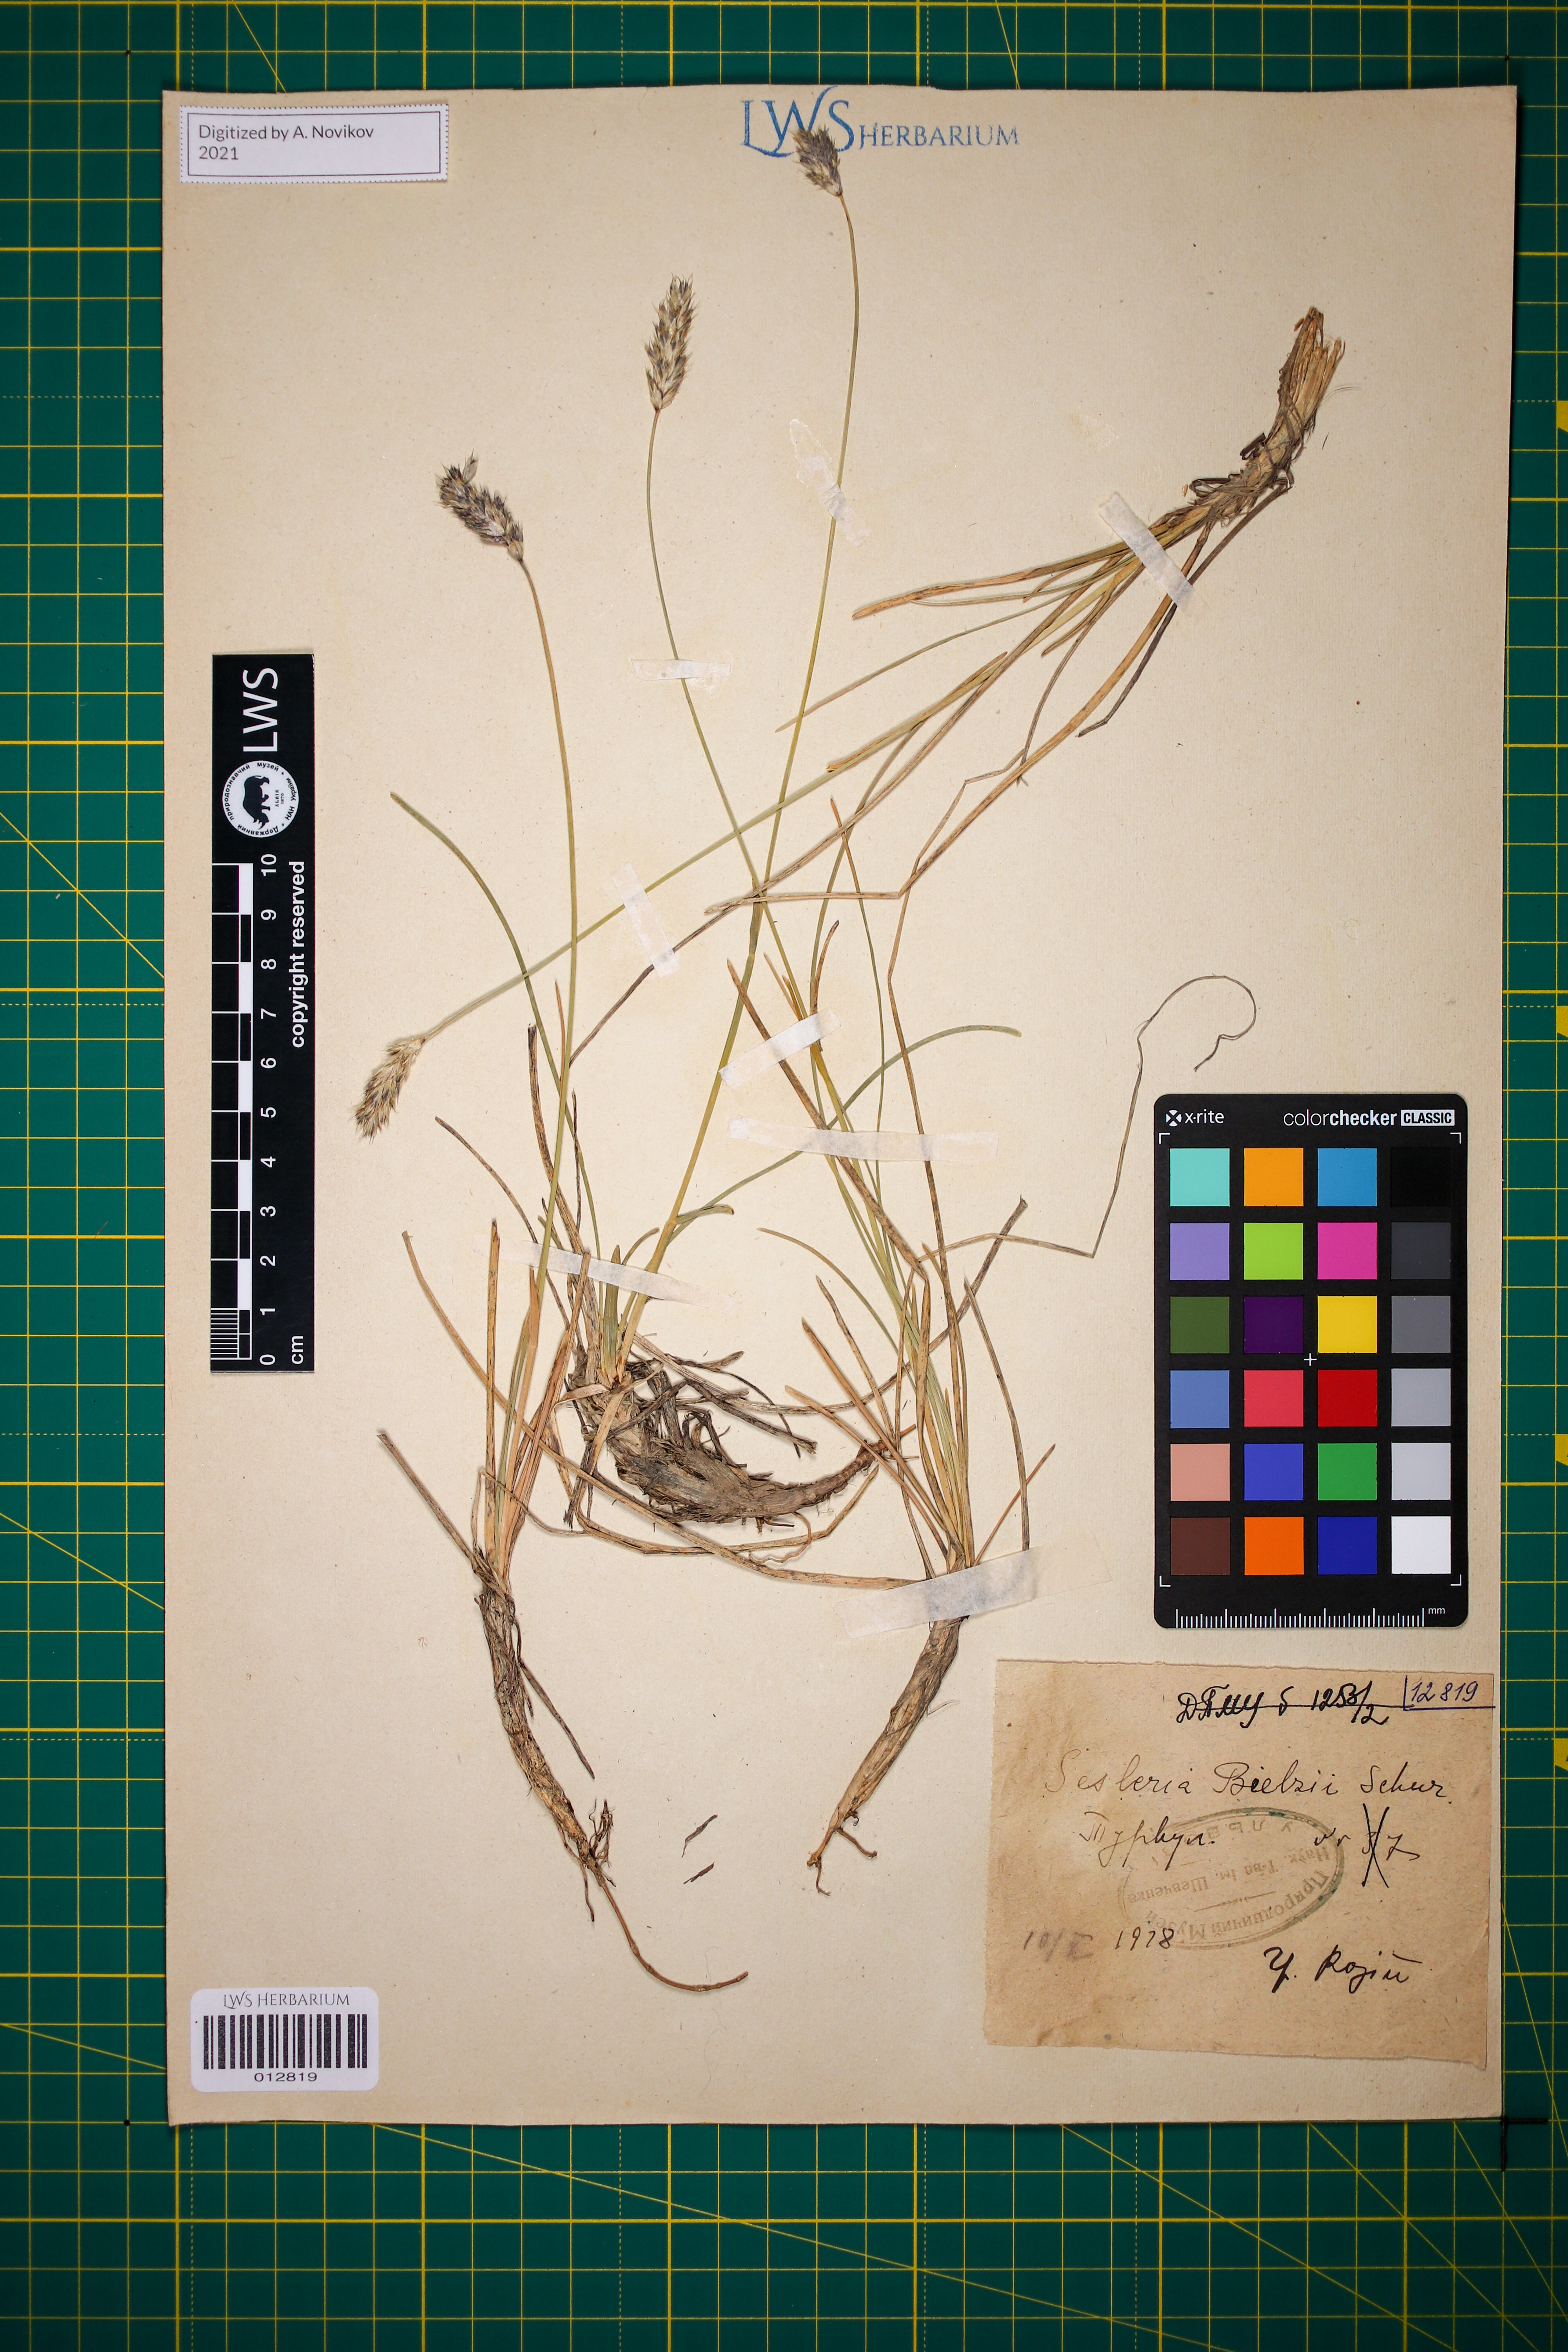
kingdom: Plantae
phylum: Tracheophyta
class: Liliopsida
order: Poales
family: Poaceae
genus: Sesleria
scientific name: Sesleria bielzii
